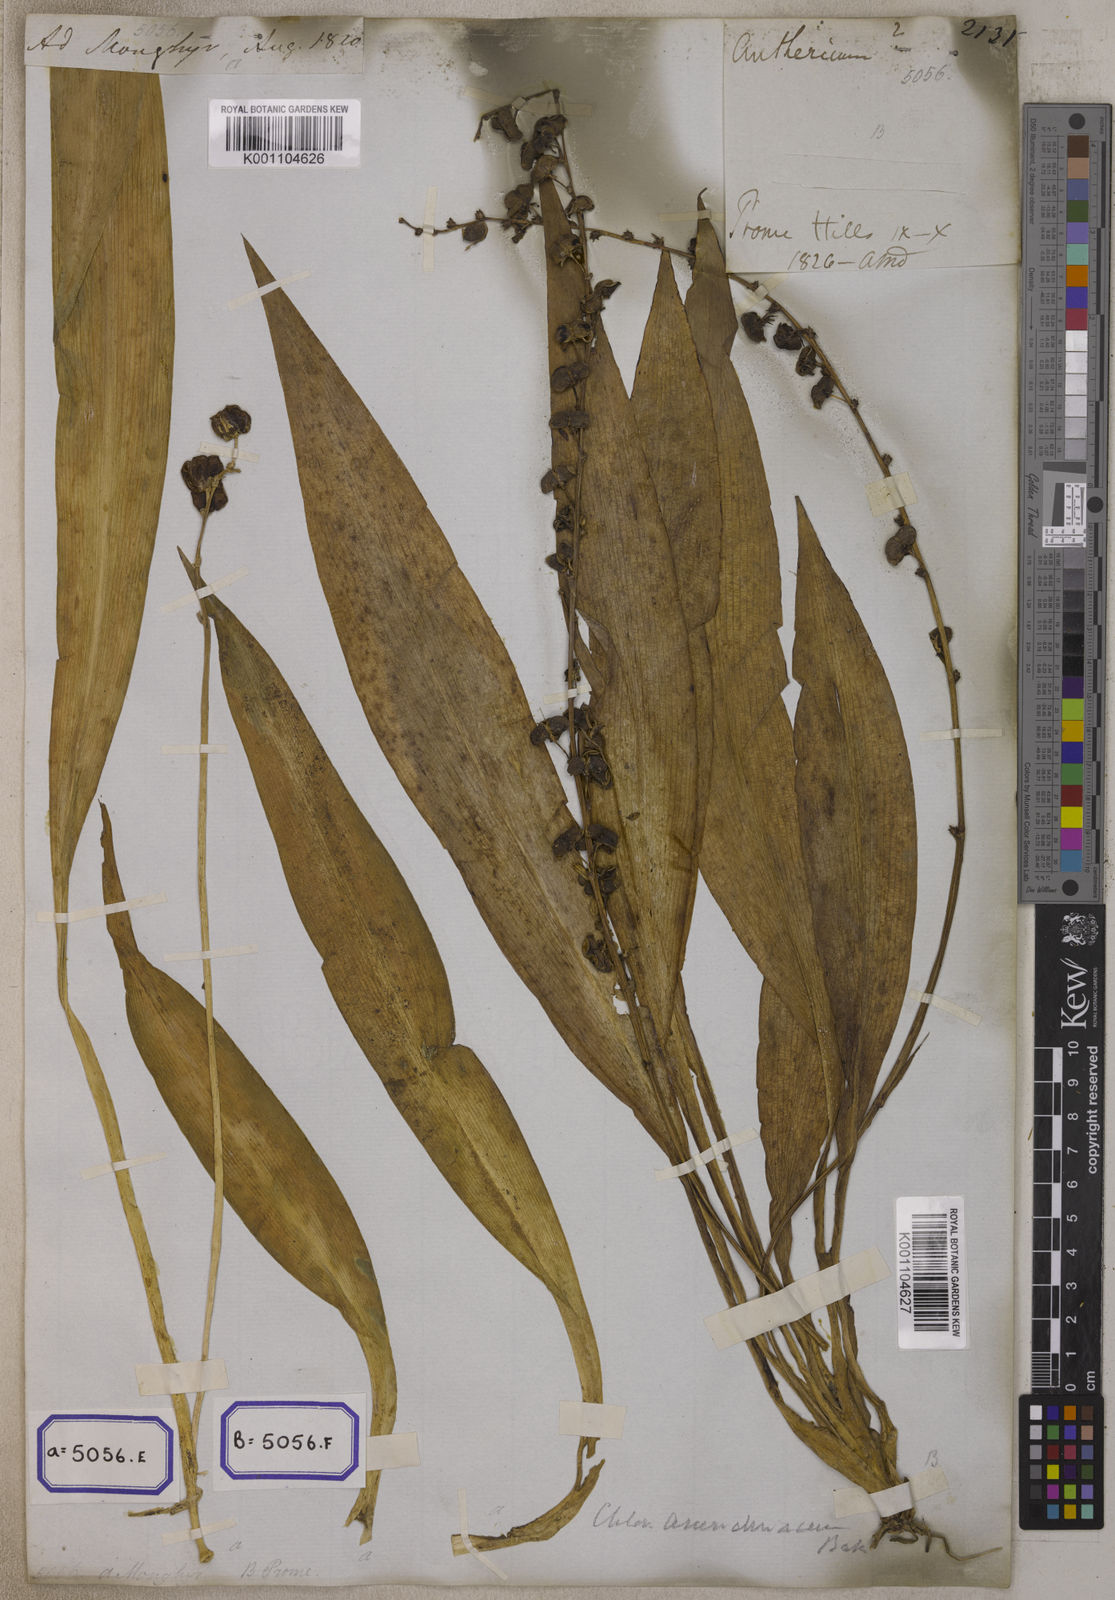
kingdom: Plantae
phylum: Tracheophyta
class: Liliopsida
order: Asparagales
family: Iridaceae
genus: Phalangium
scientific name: Phalangium
